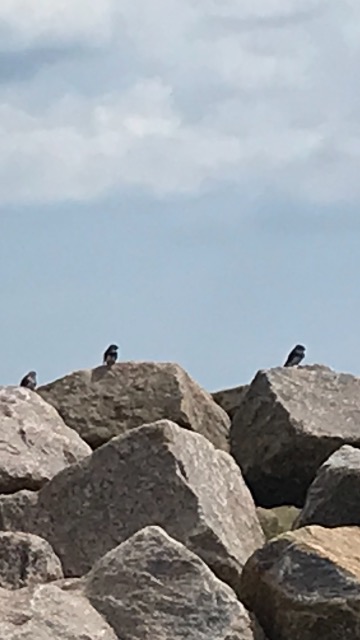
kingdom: Animalia
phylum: Chordata
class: Aves
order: Passeriformes
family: Hirundinidae
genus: Riparia
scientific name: Riparia riparia
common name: Digesvale
